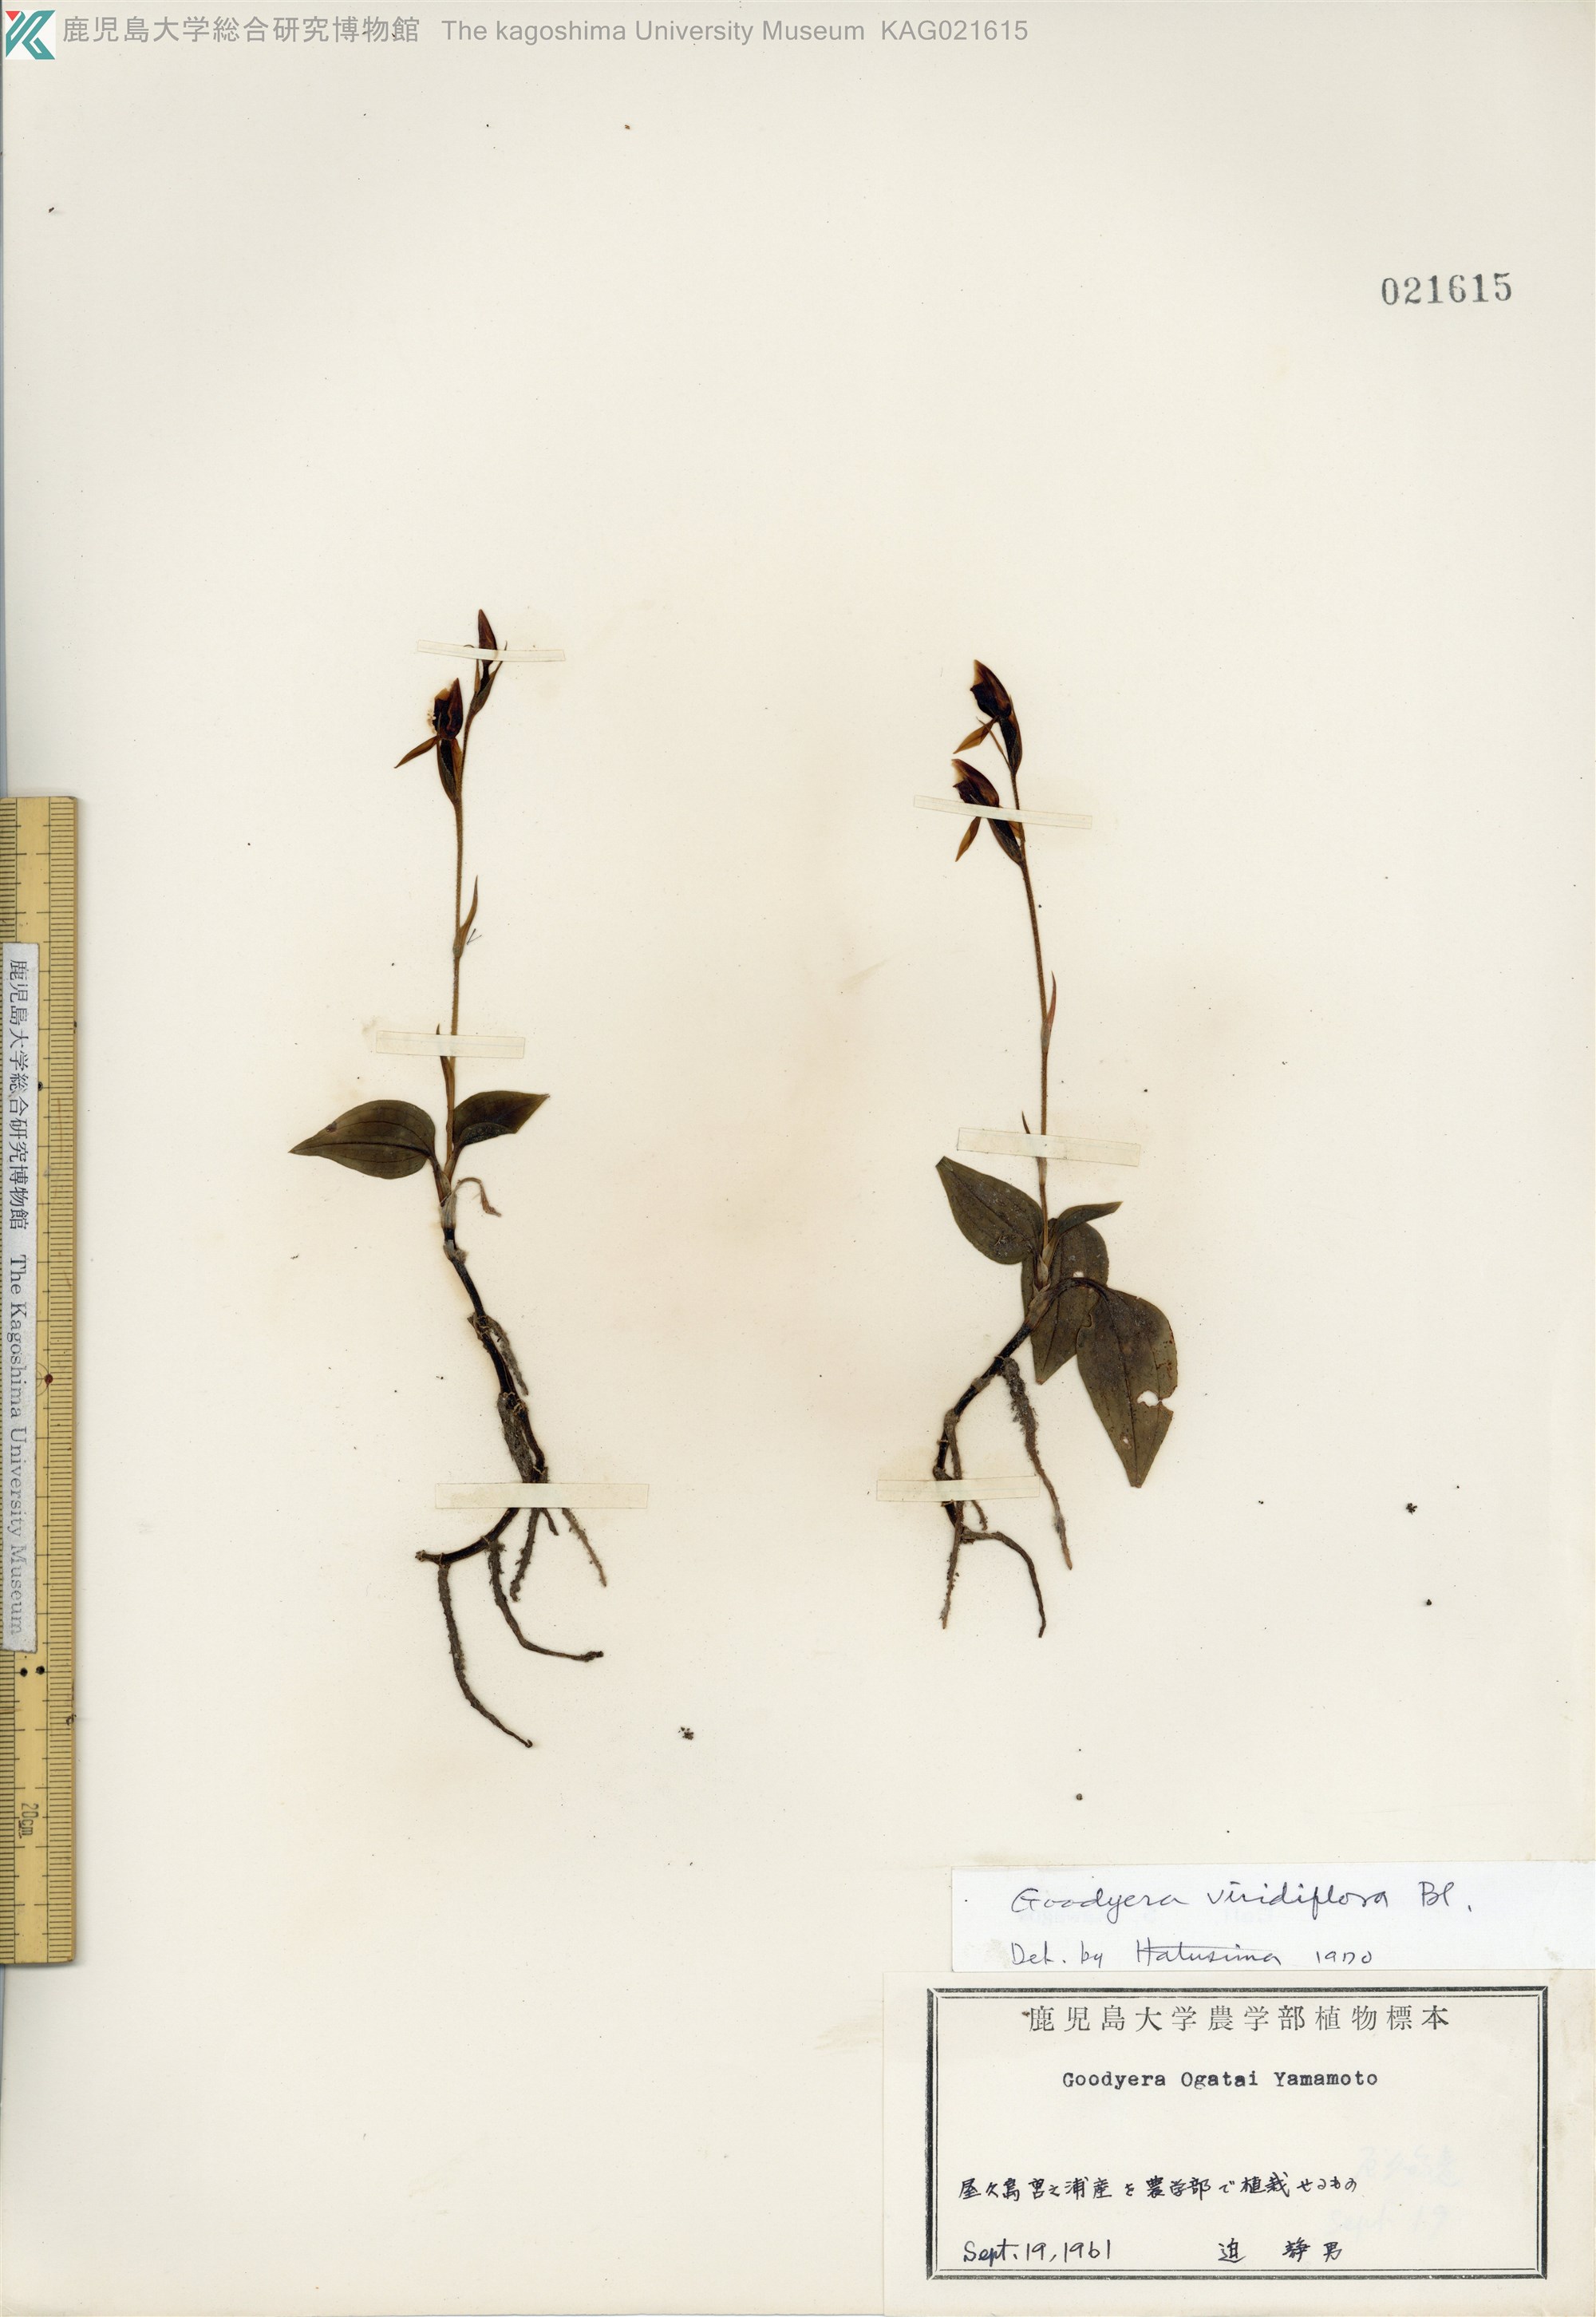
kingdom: Plantae
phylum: Tracheophyta
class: Liliopsida
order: Asparagales
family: Orchidaceae
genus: Goodyera
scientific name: Goodyera viridiflora
